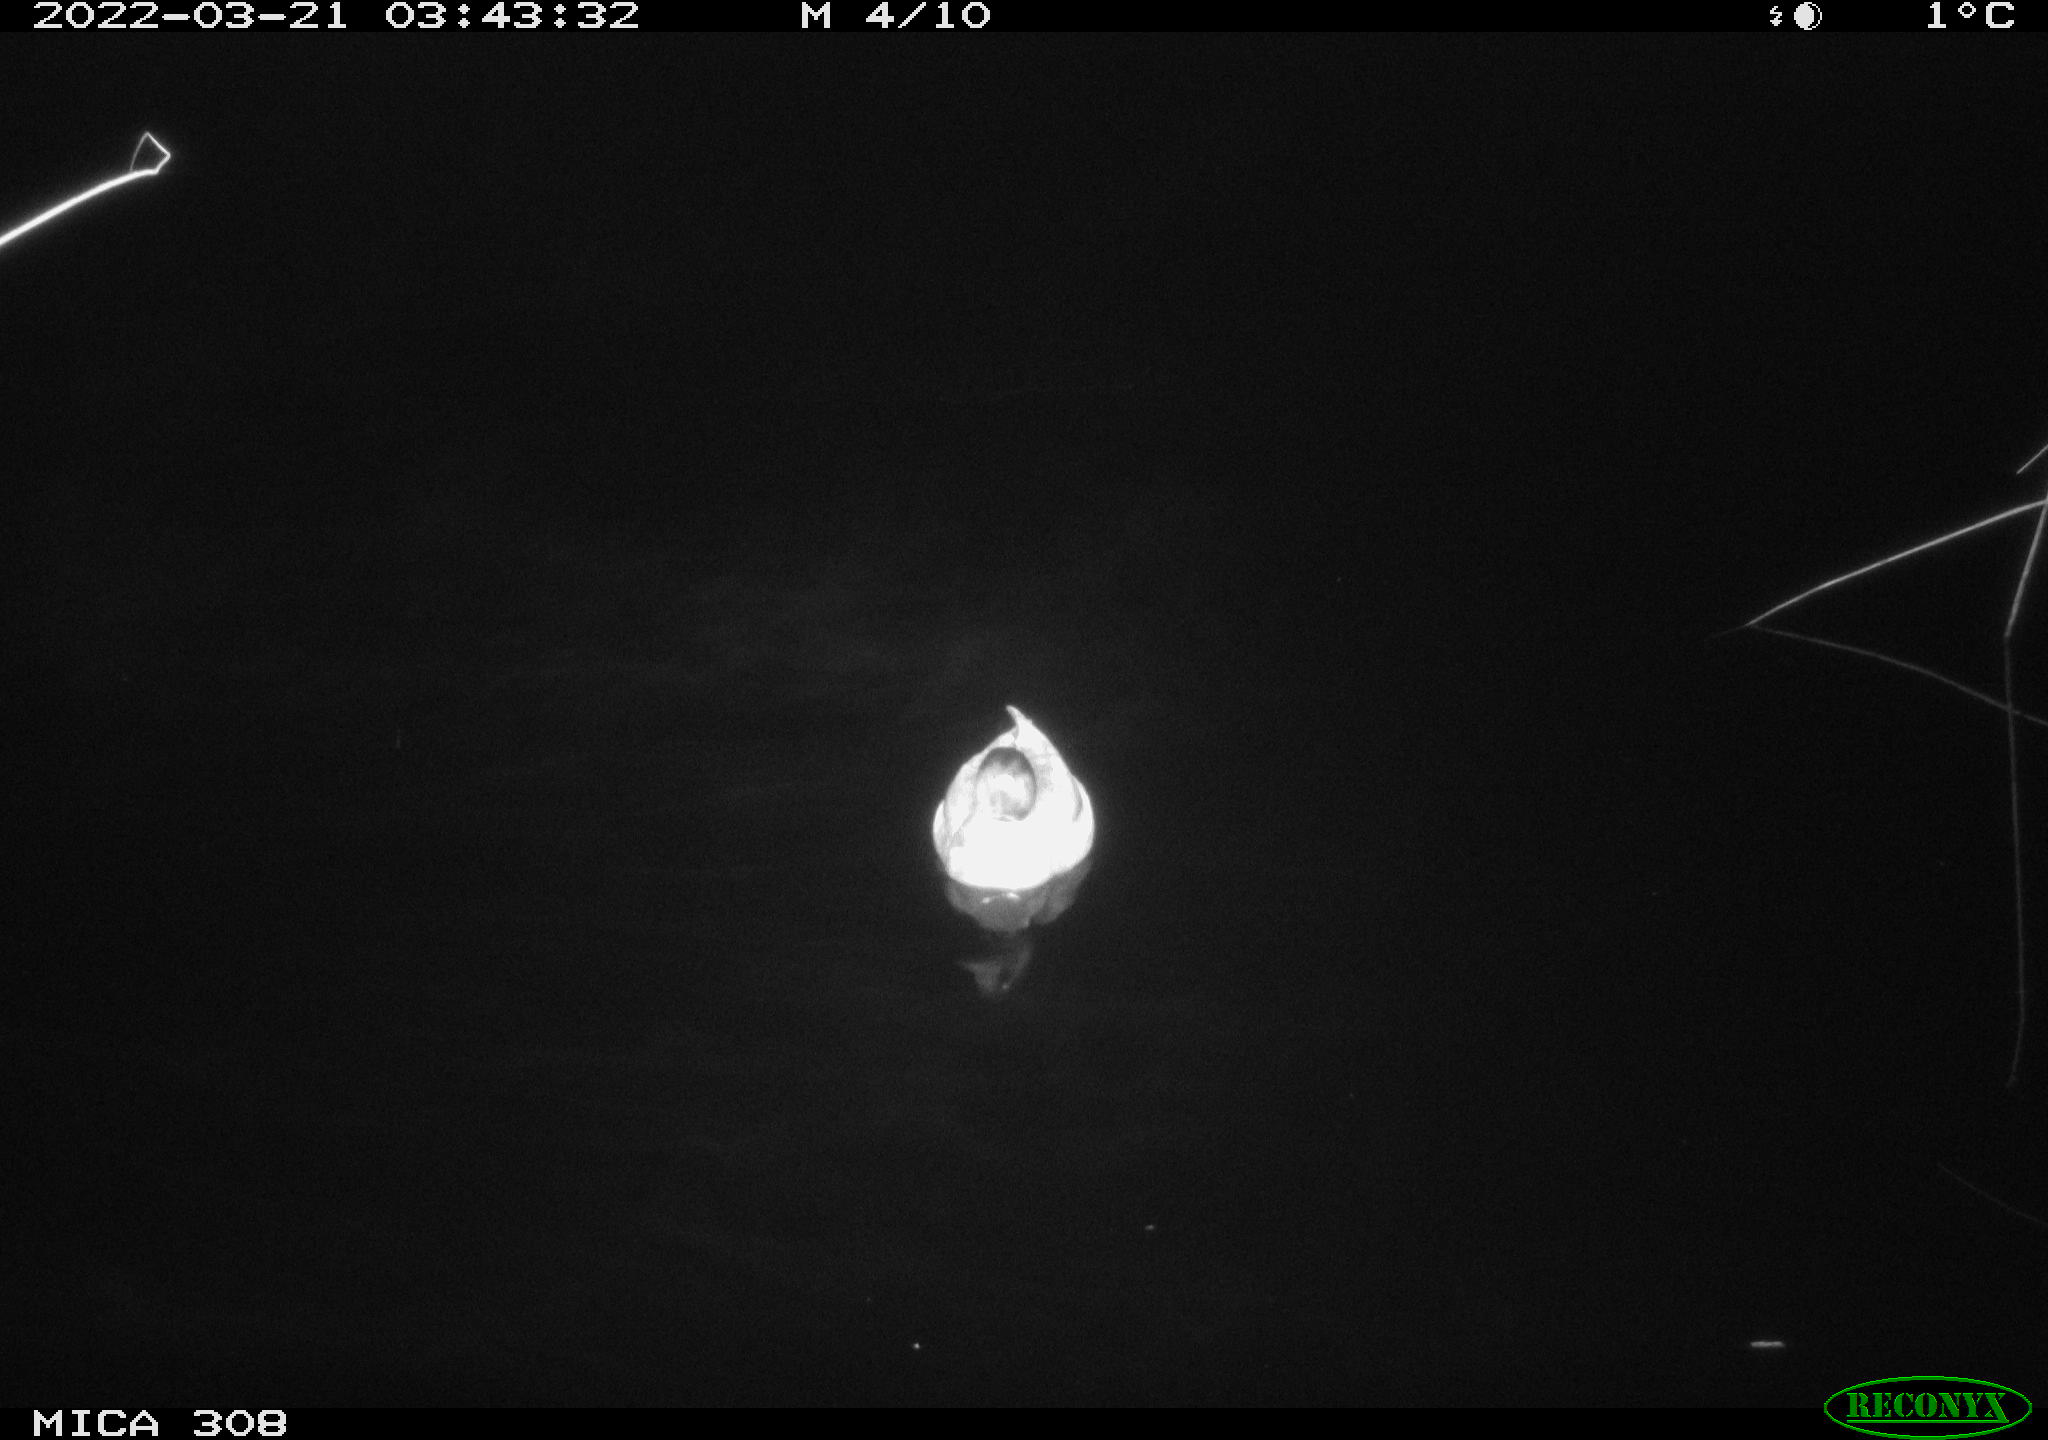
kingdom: Animalia
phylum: Chordata
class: Aves
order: Anseriformes
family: Anatidae
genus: Anas
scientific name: Anas platyrhynchos
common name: Mallard
